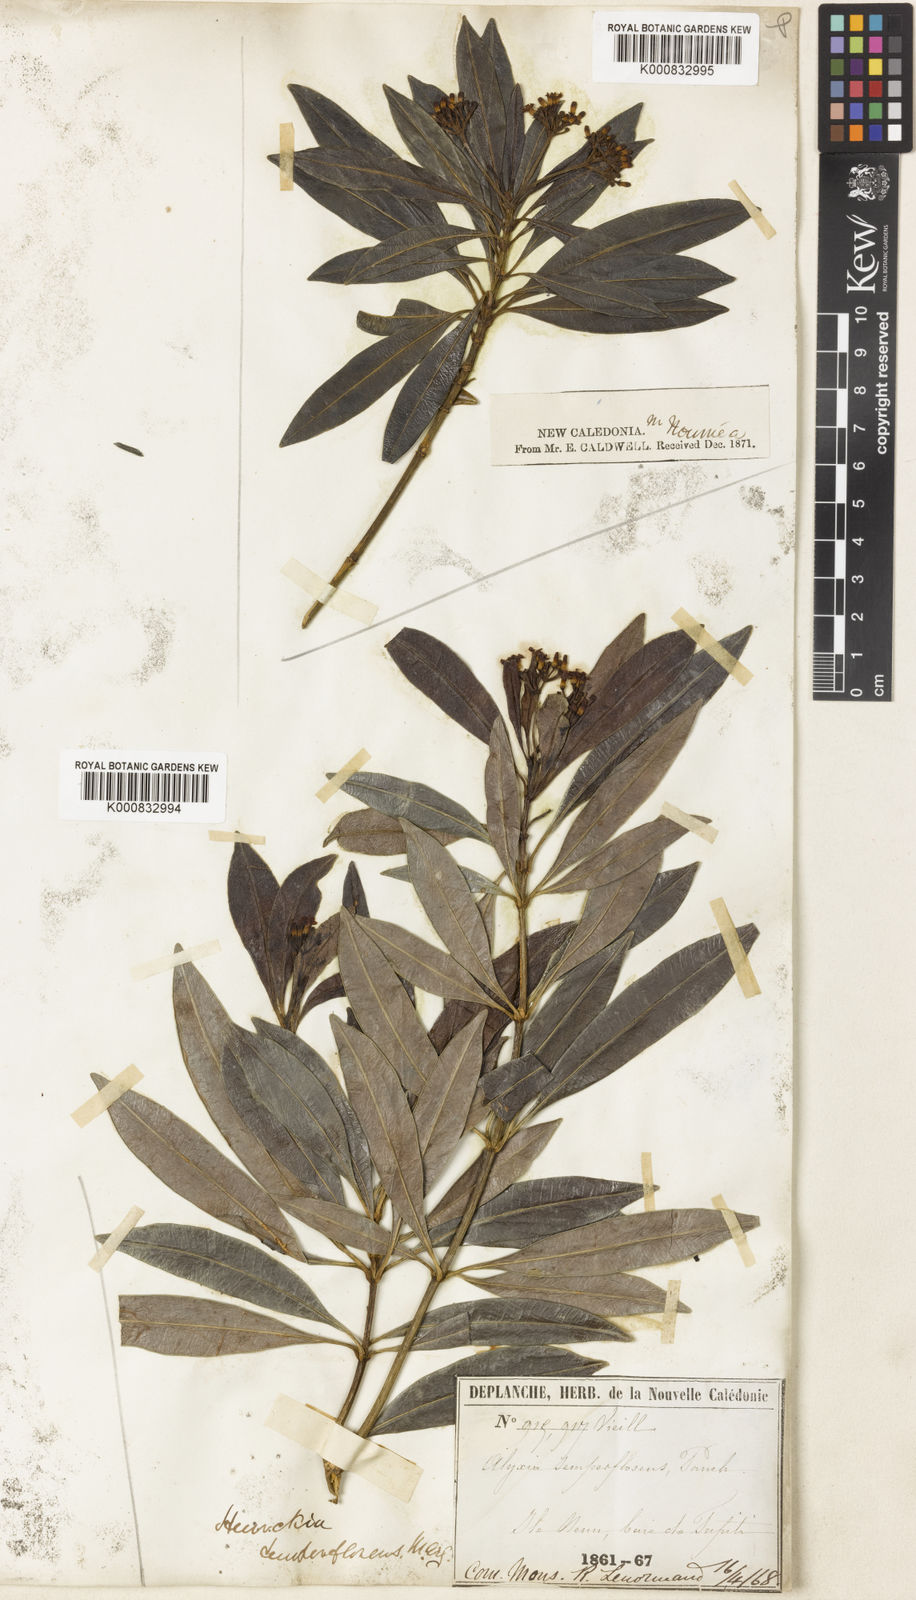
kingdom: Plantae
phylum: Tracheophyta
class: Magnoliopsida
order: Gentianales
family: Apocynaceae
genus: Rauvolfia
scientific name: Rauvolfia
